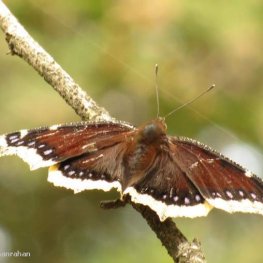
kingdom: Animalia
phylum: Arthropoda
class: Insecta
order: Lepidoptera
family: Nymphalidae
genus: Nymphalis
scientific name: Nymphalis antiopa
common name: Mourning Cloak
